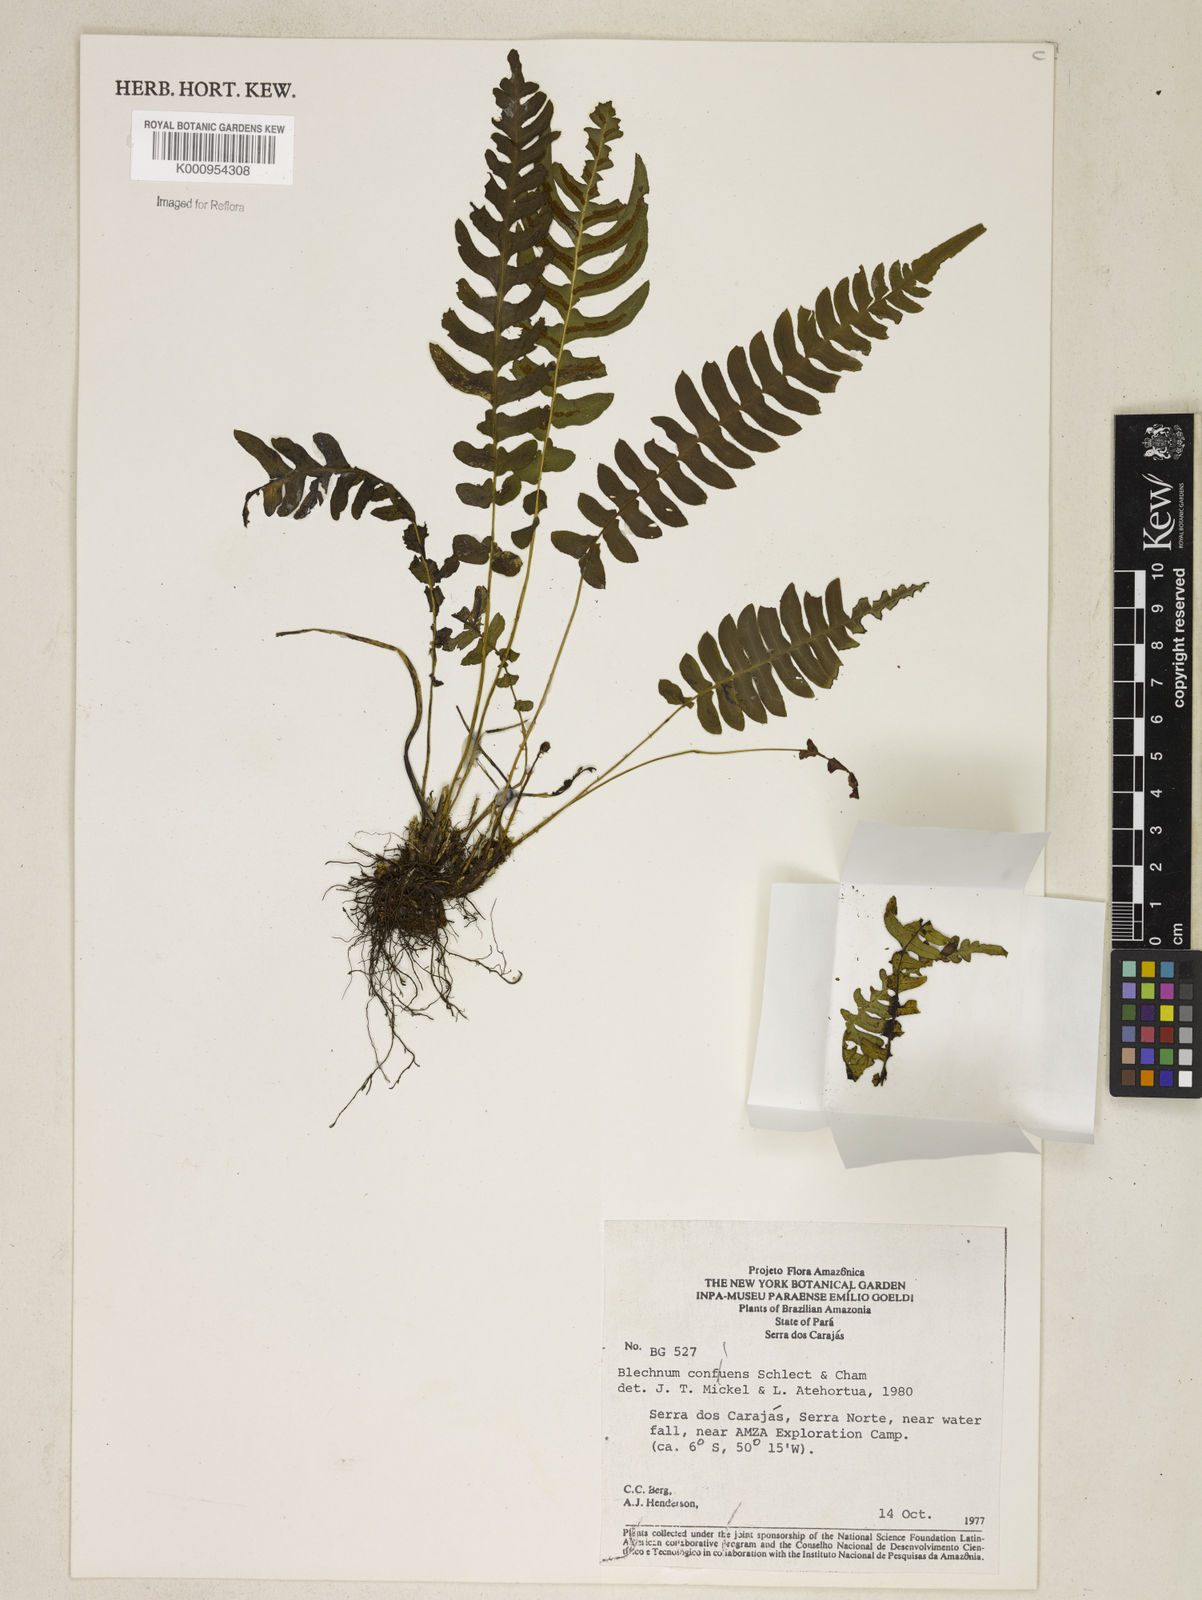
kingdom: Plantae
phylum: Tracheophyta
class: Polypodiopsida
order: Polypodiales
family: Blechnaceae
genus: Blechnum
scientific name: Blechnum confluens
